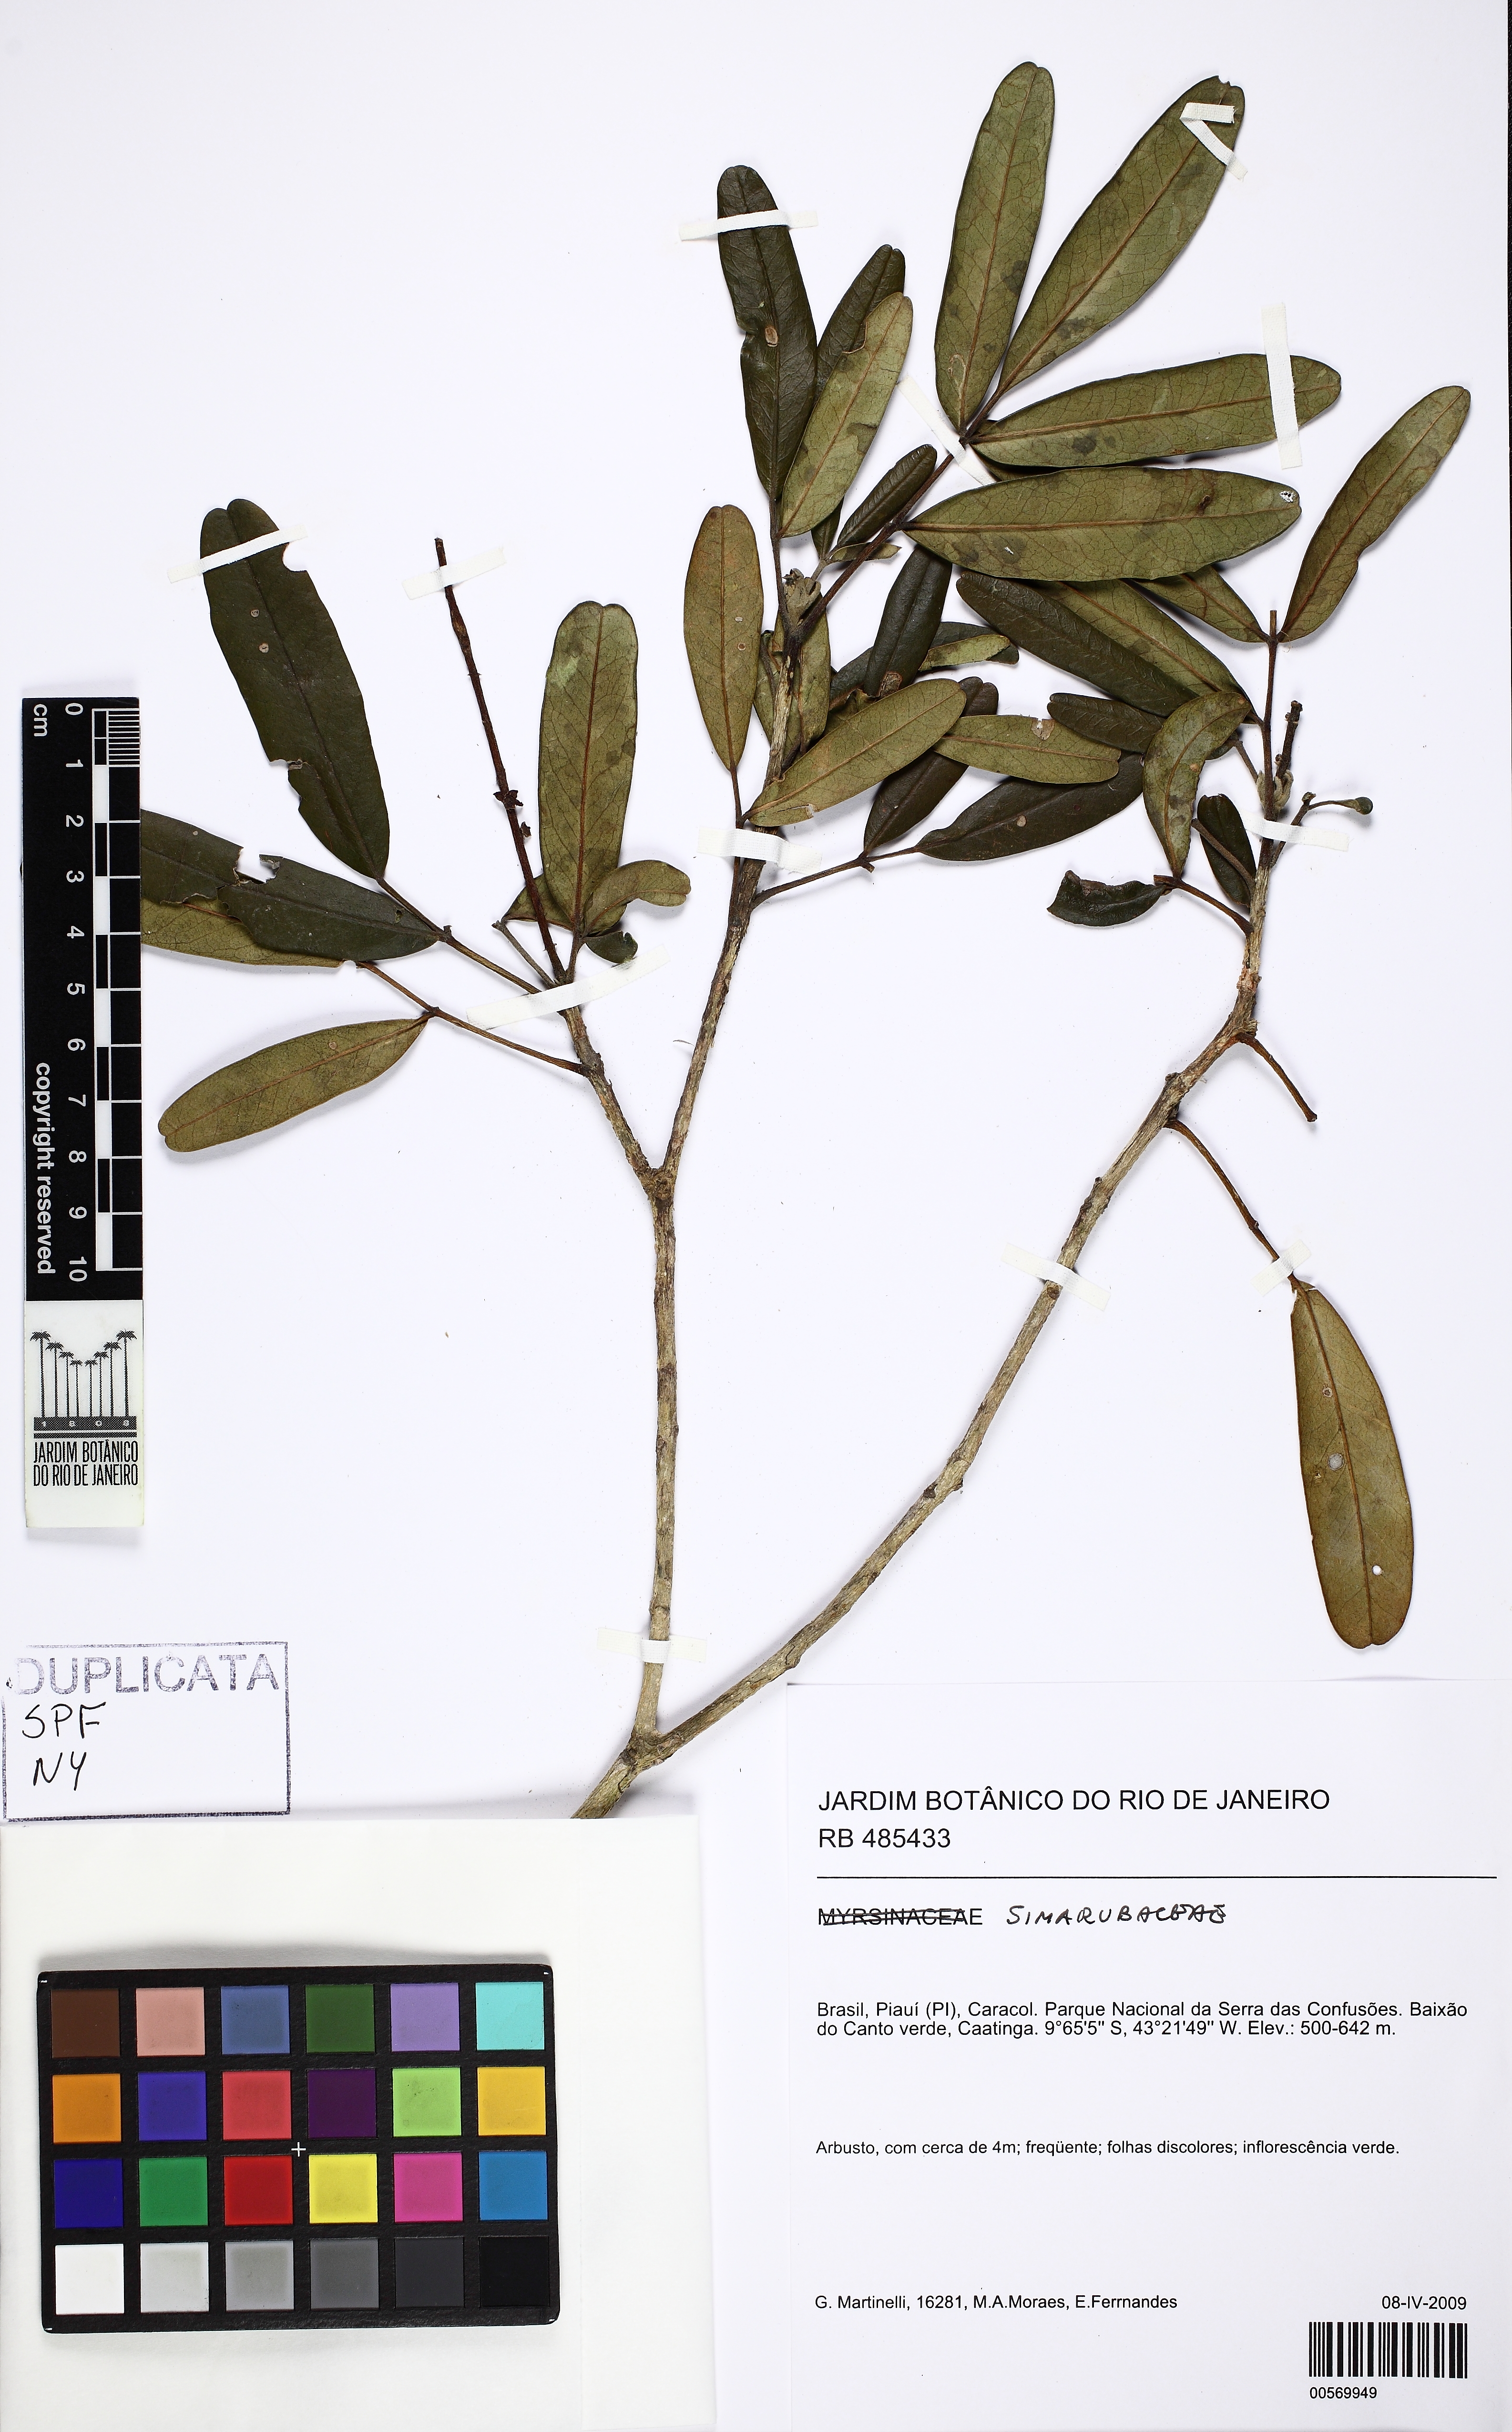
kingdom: Plantae
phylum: Tracheophyta
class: Magnoliopsida
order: Sapindales
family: Rutaceae
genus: Pilocarpus
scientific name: Pilocarpus jaborandi
